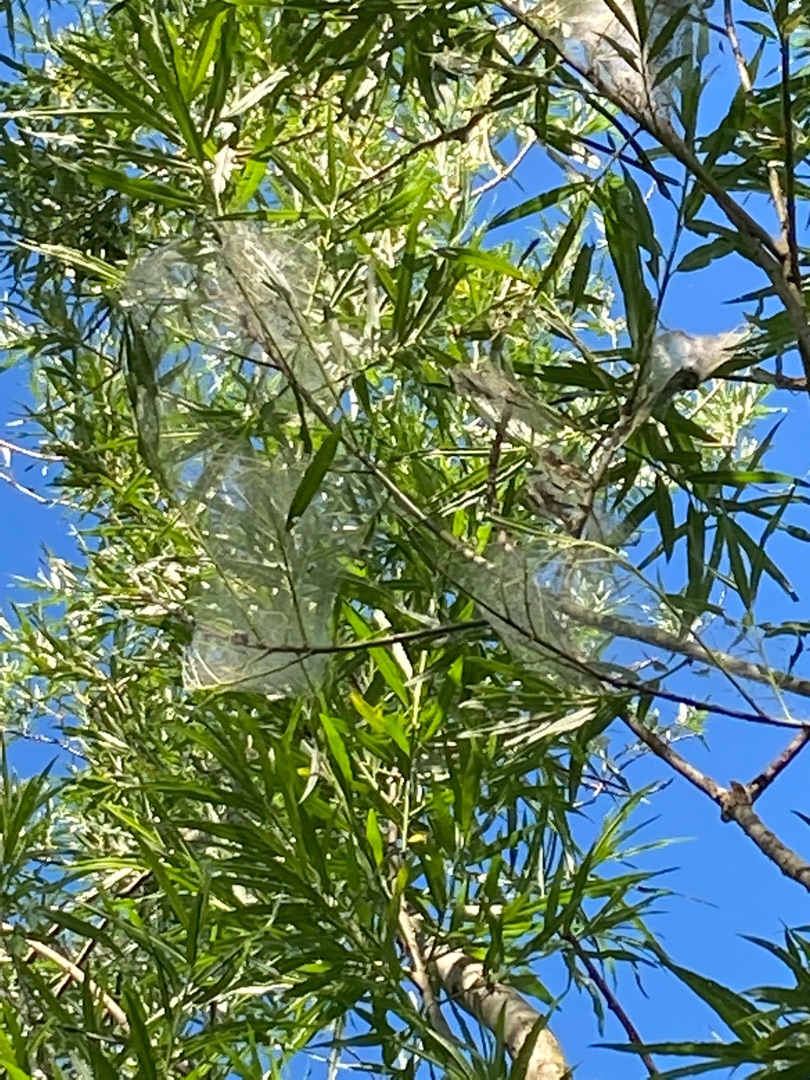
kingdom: Plantae
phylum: Tracheophyta
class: Magnoliopsida
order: Malpighiales
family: Salicaceae
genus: Salix
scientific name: Salix viminalis
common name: Bånd-pil
